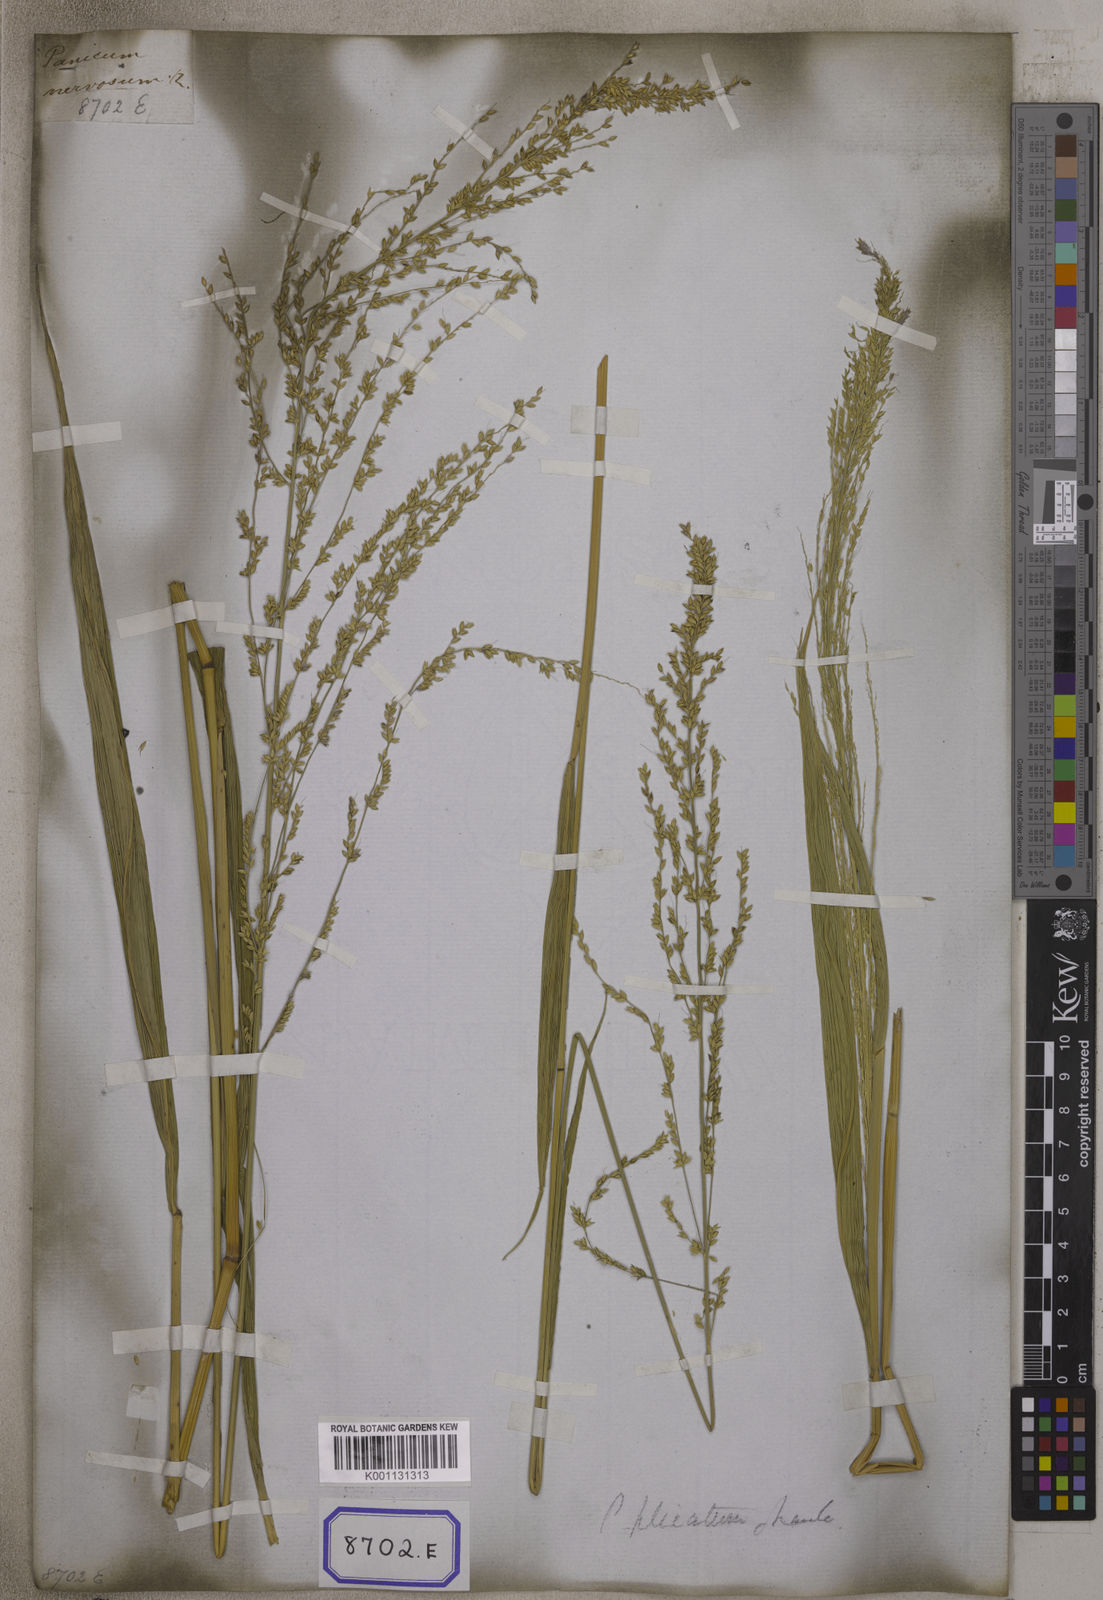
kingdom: Plantae
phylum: Tracheophyta
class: Liliopsida
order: Poales
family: Poaceae
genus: Setaria
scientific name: Setaria palmifolia
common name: Broadleaved bristlegrass
